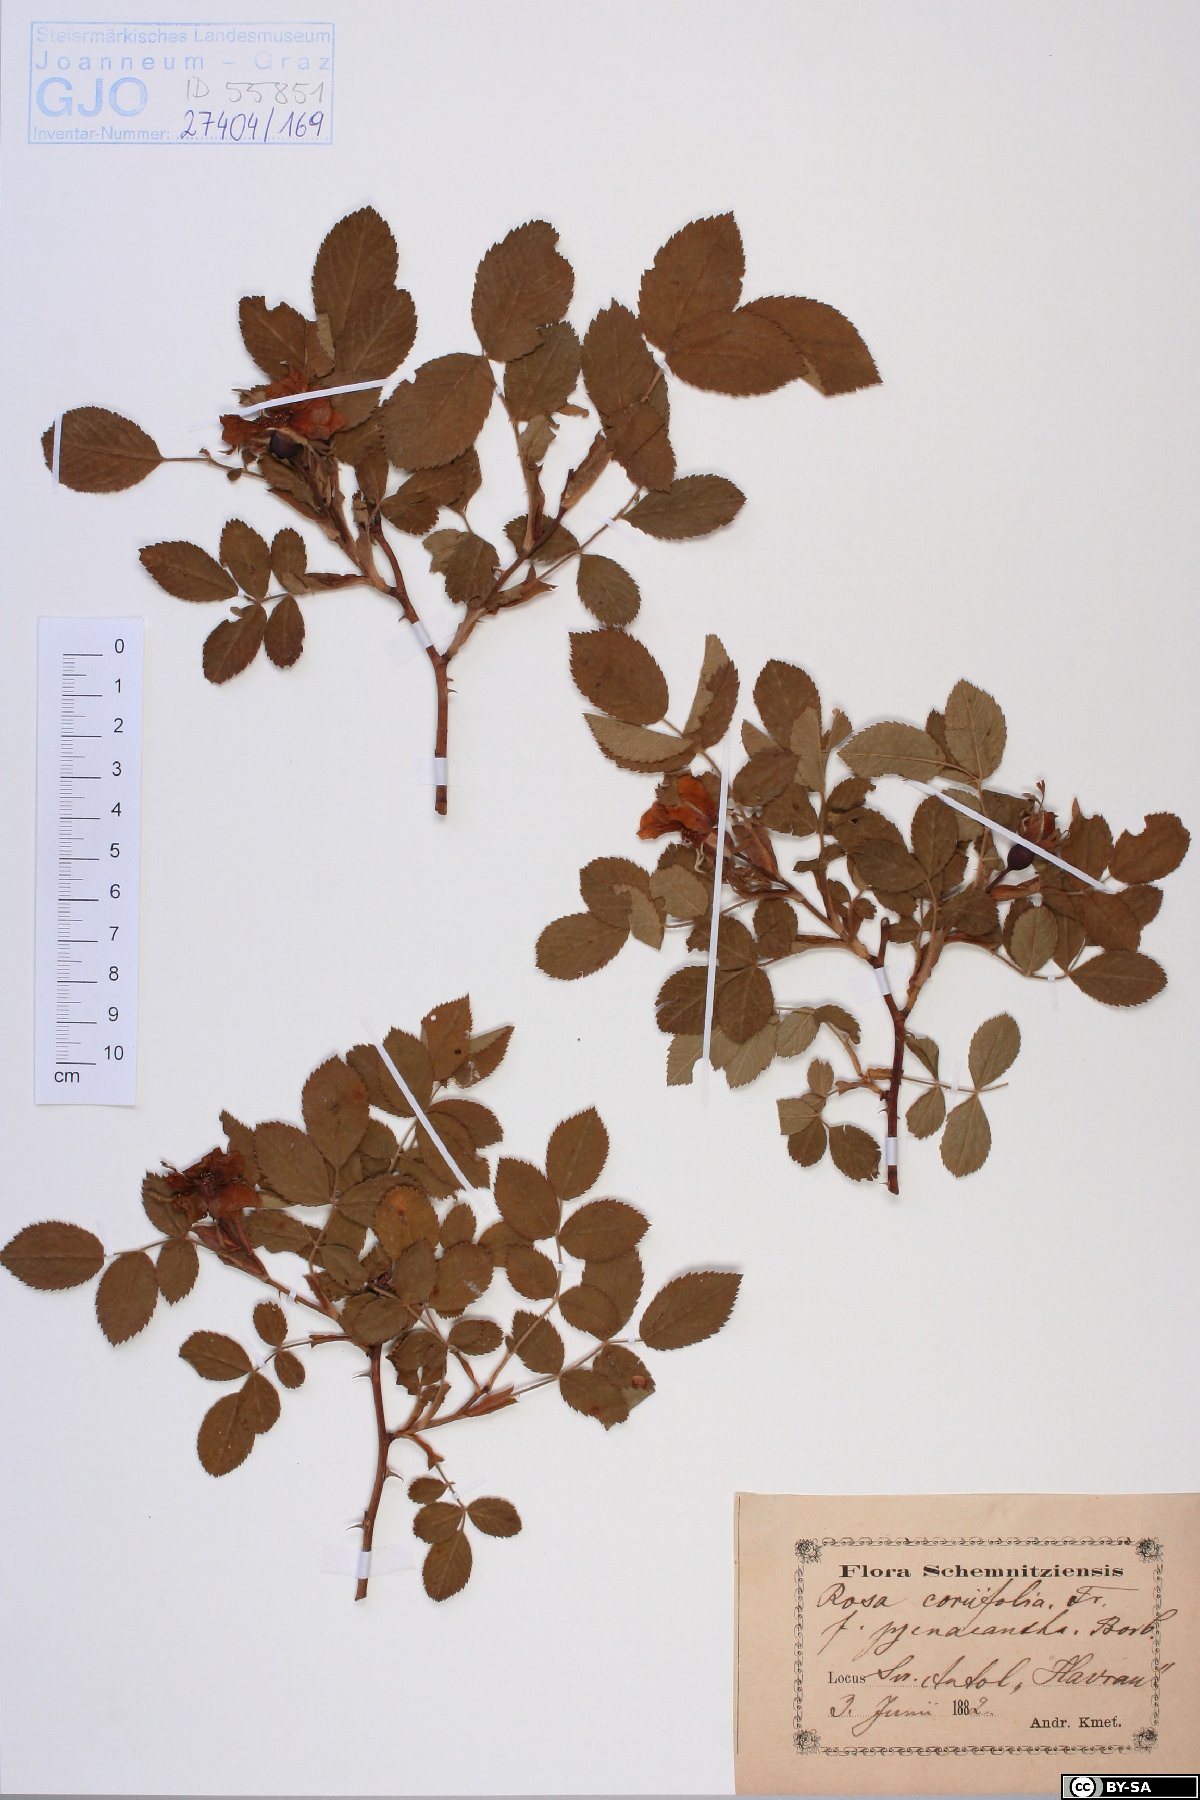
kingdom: Plantae
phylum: Tracheophyta
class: Magnoliopsida
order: Rosales
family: Rosaceae
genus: Rosa
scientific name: Rosa caesia
